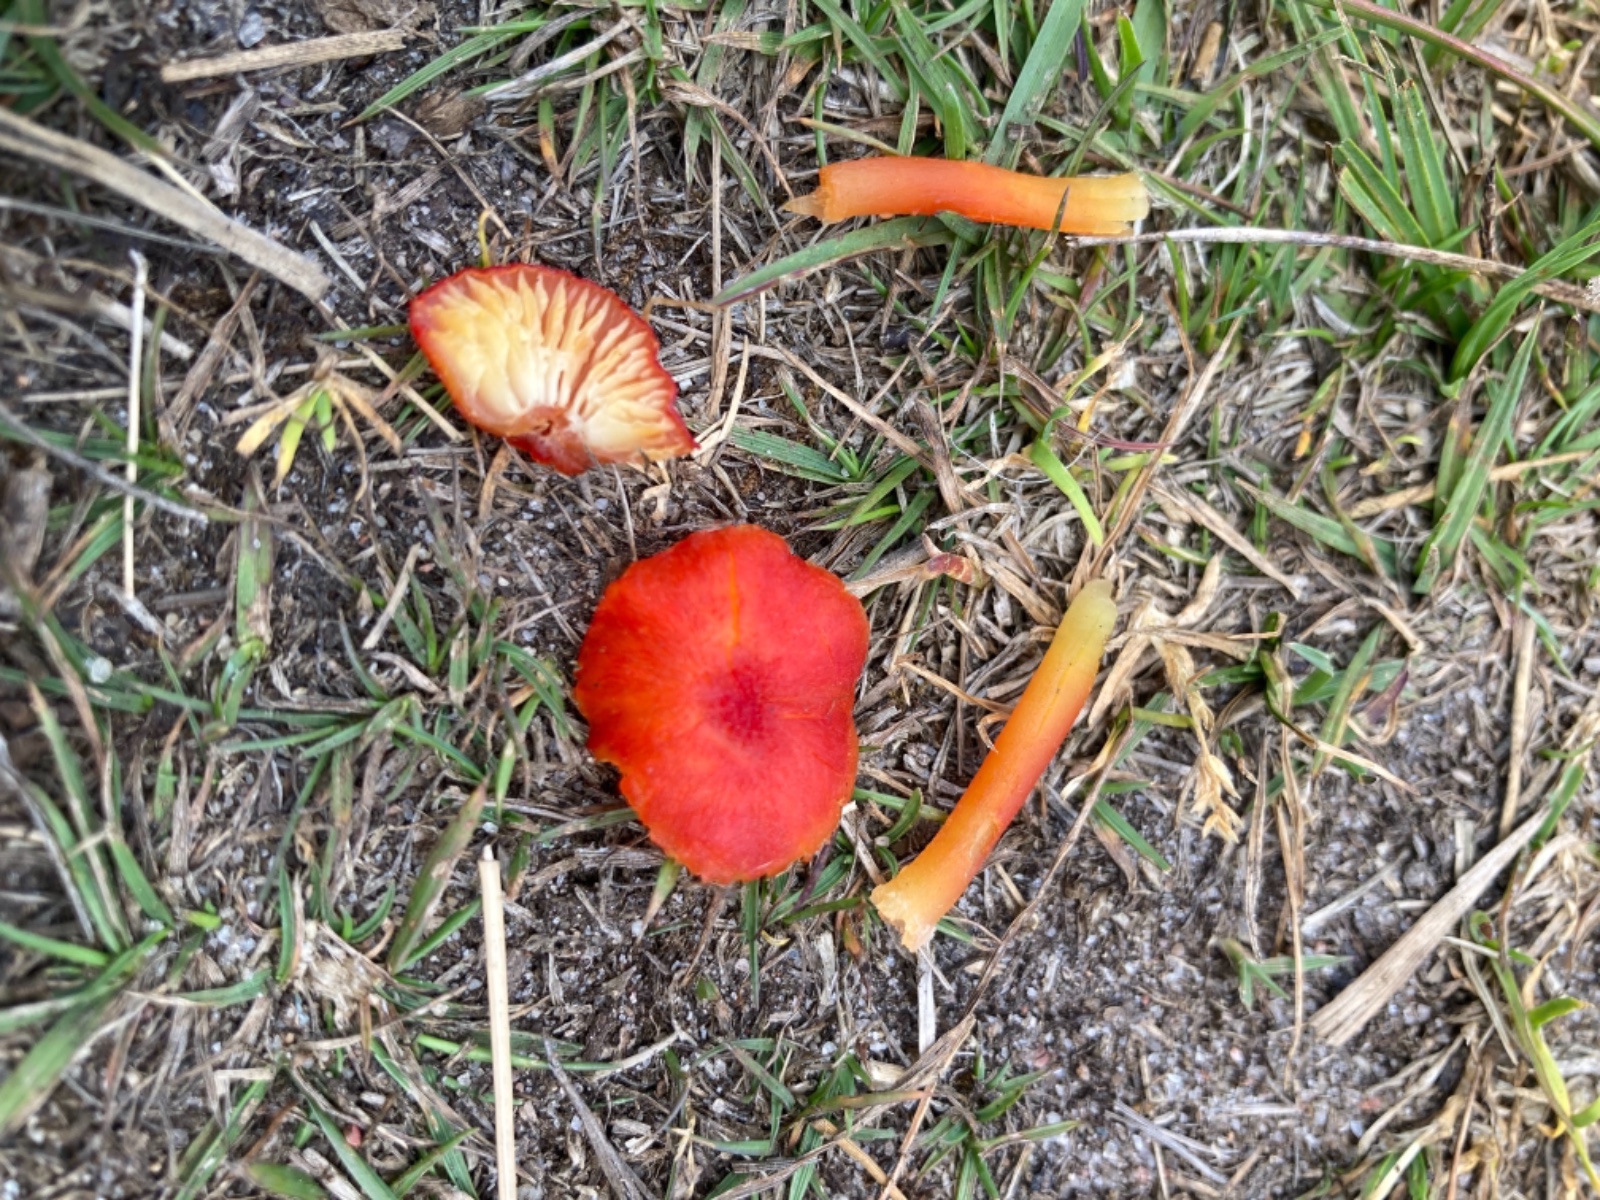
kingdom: Fungi
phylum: Basidiomycota
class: Agaricomycetes
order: Agaricales
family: Hygrophoraceae
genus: Hygrocybe
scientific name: Hygrocybe helobia
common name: hvidløgs-vokshat
